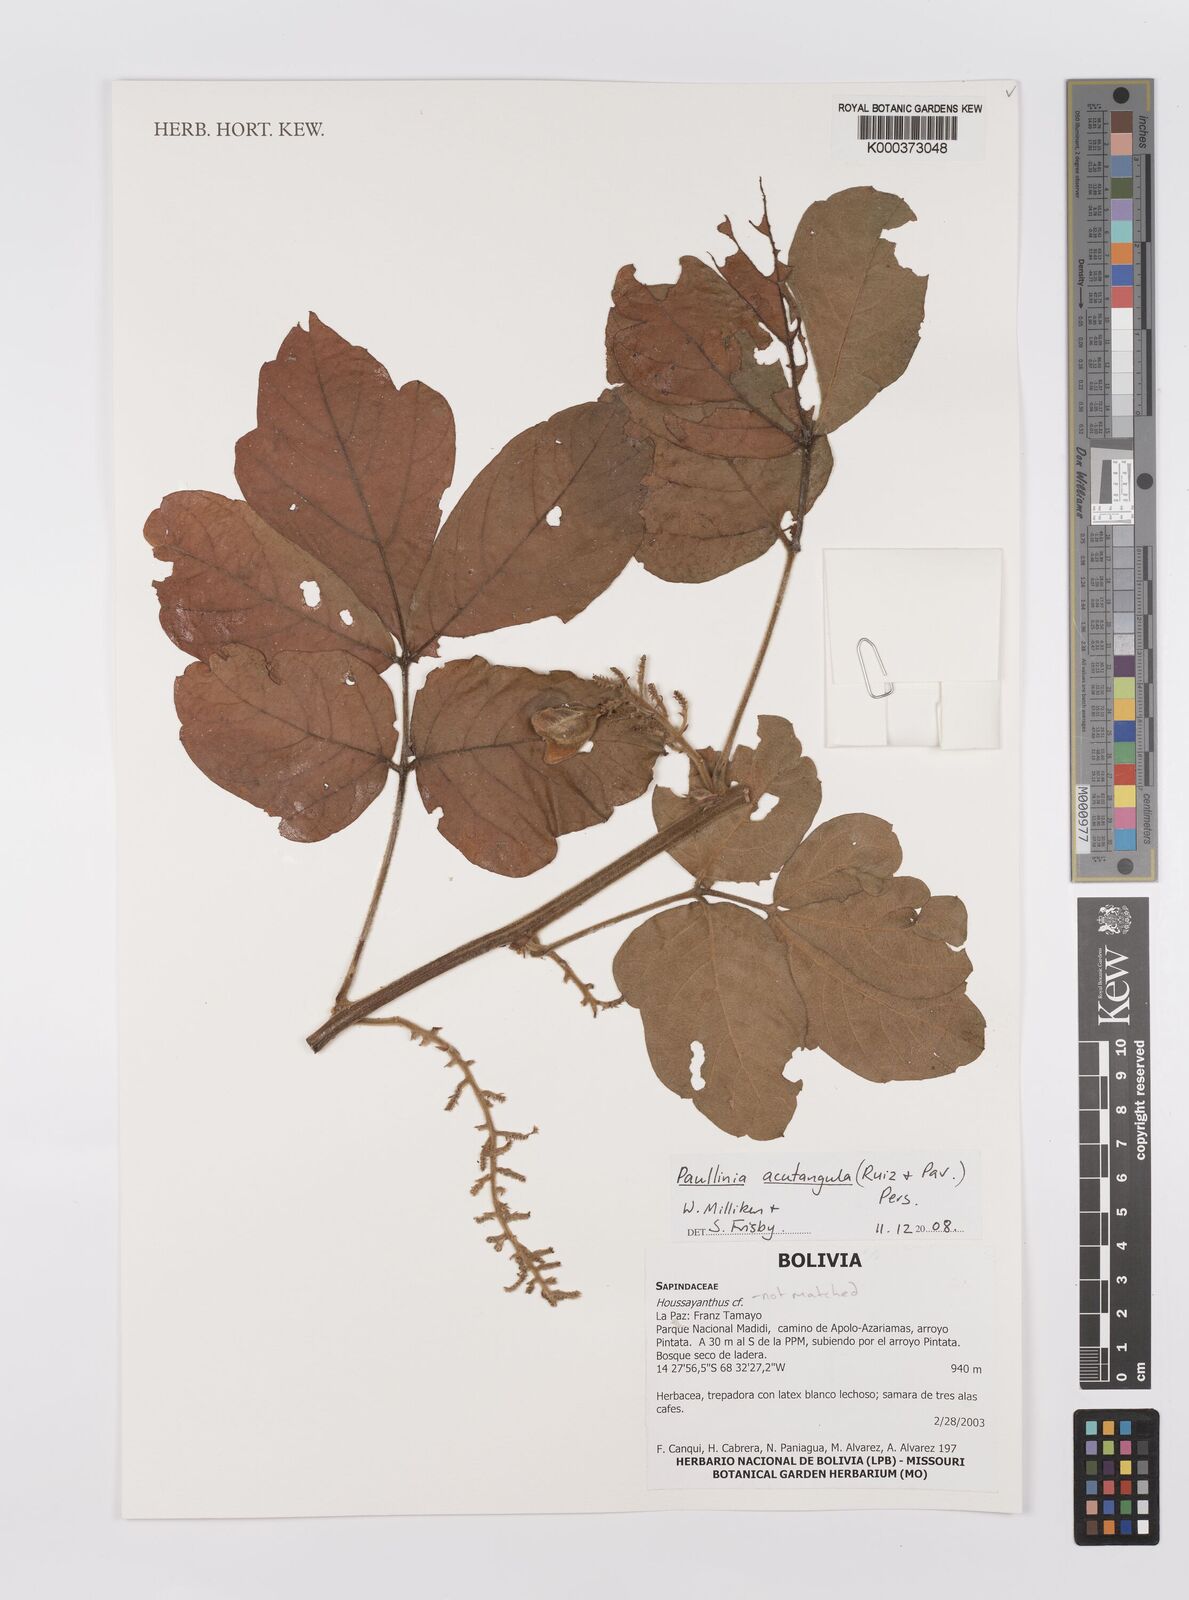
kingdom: Plantae
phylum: Tracheophyta
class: Magnoliopsida
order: Sapindales
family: Sapindaceae
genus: Paullinia
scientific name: Paullinia acutangula
